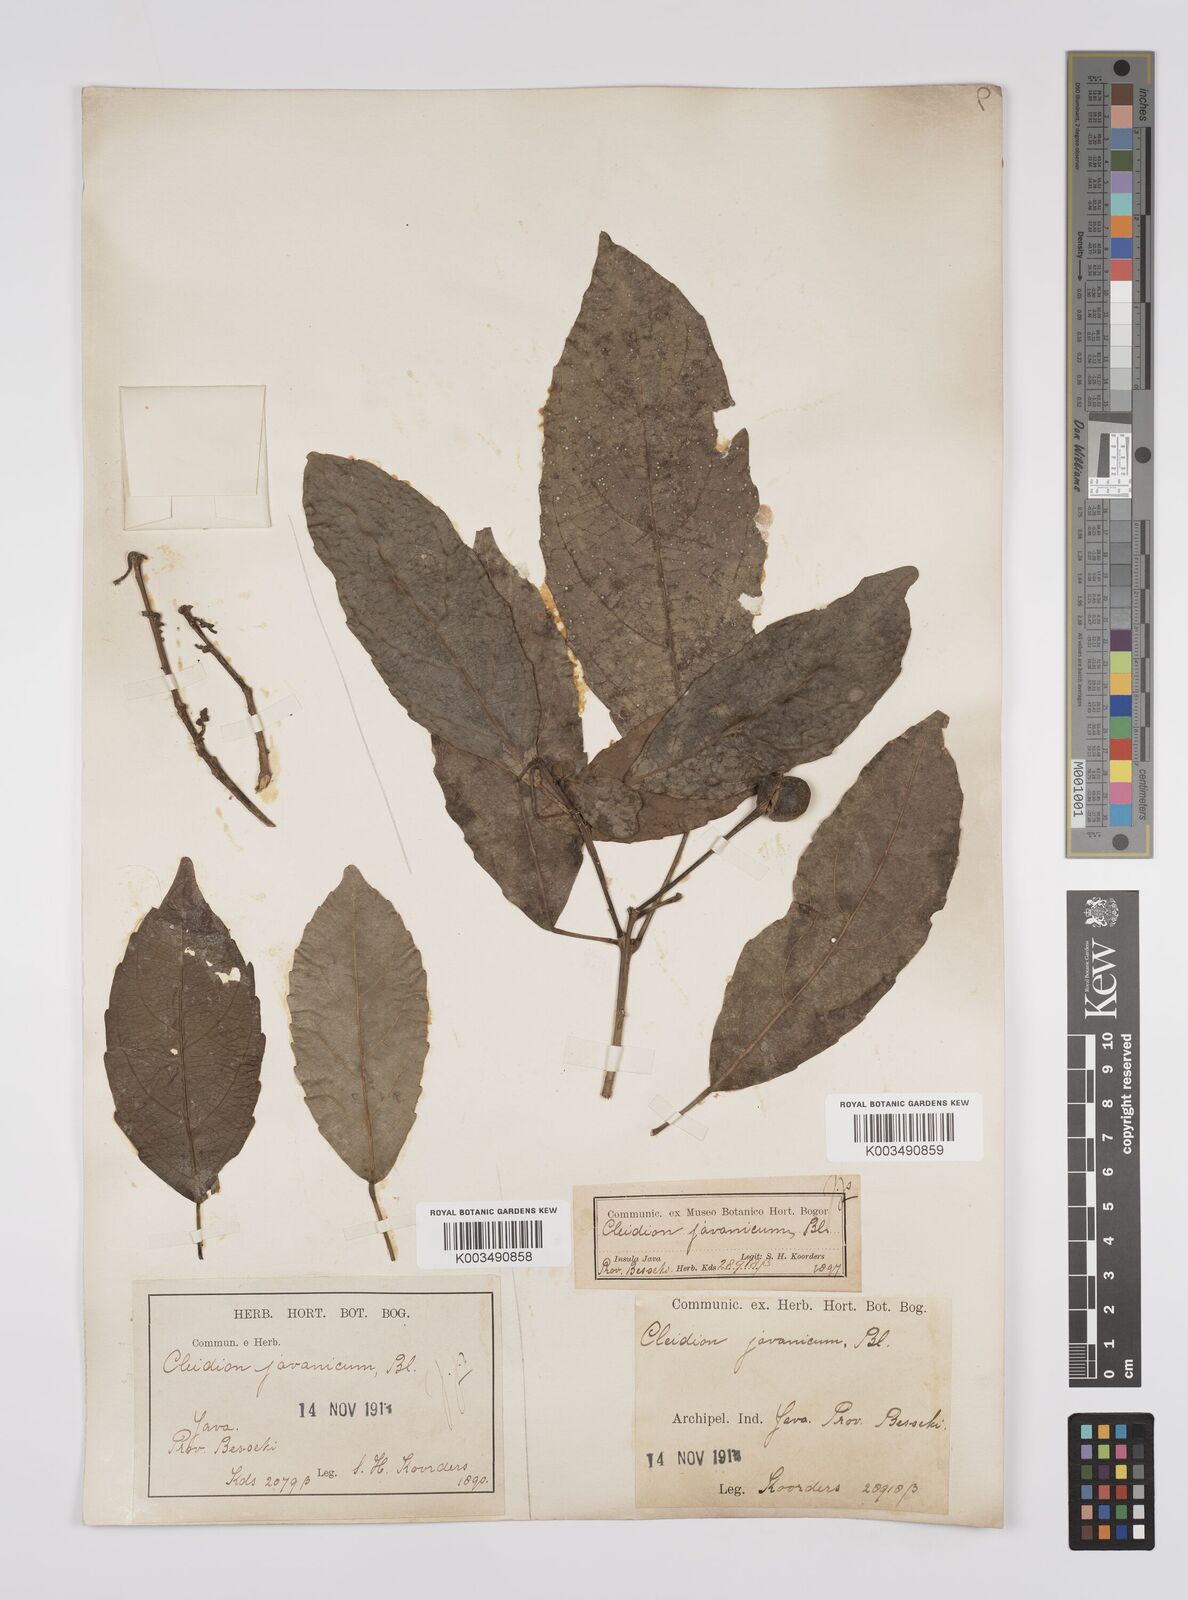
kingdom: Plantae
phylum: Tracheophyta
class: Magnoliopsida
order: Malpighiales
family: Euphorbiaceae
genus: Acalypha
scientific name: Acalypha spiciflora
